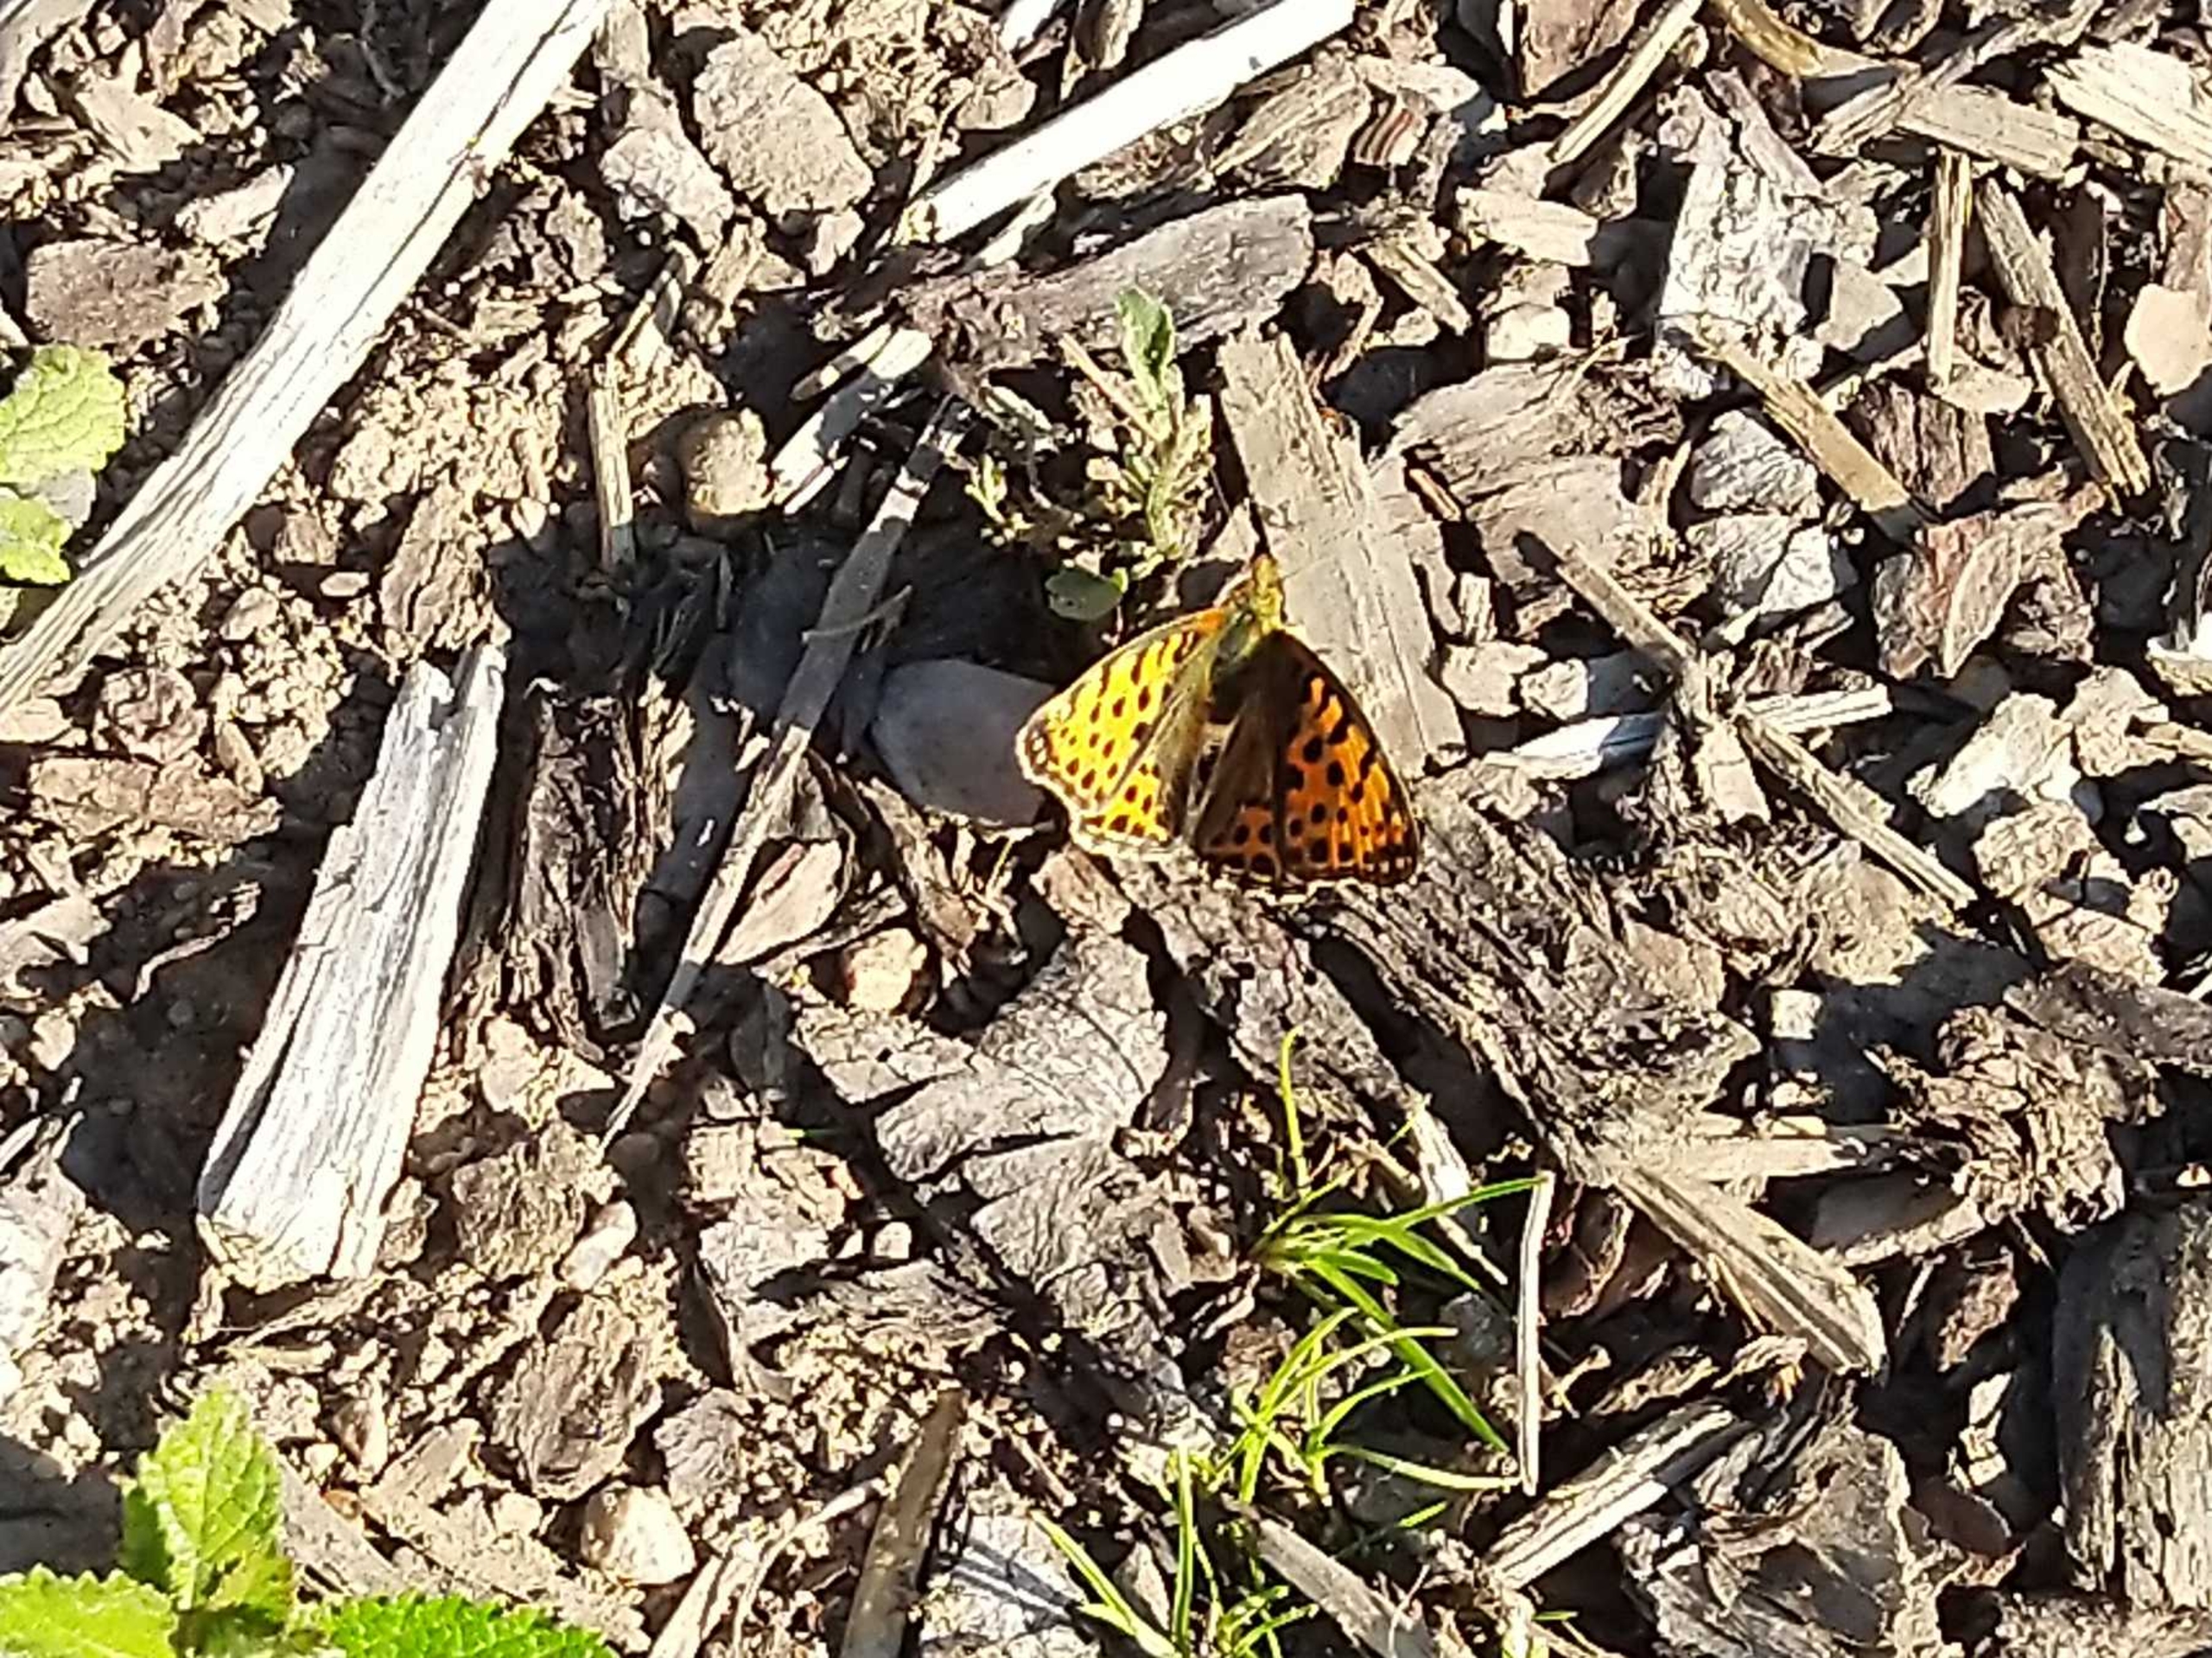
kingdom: Animalia
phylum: Arthropoda
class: Insecta
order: Lepidoptera
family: Nymphalidae
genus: Issoria
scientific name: Issoria lathonia
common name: Storplettet perlemorsommerfugl
